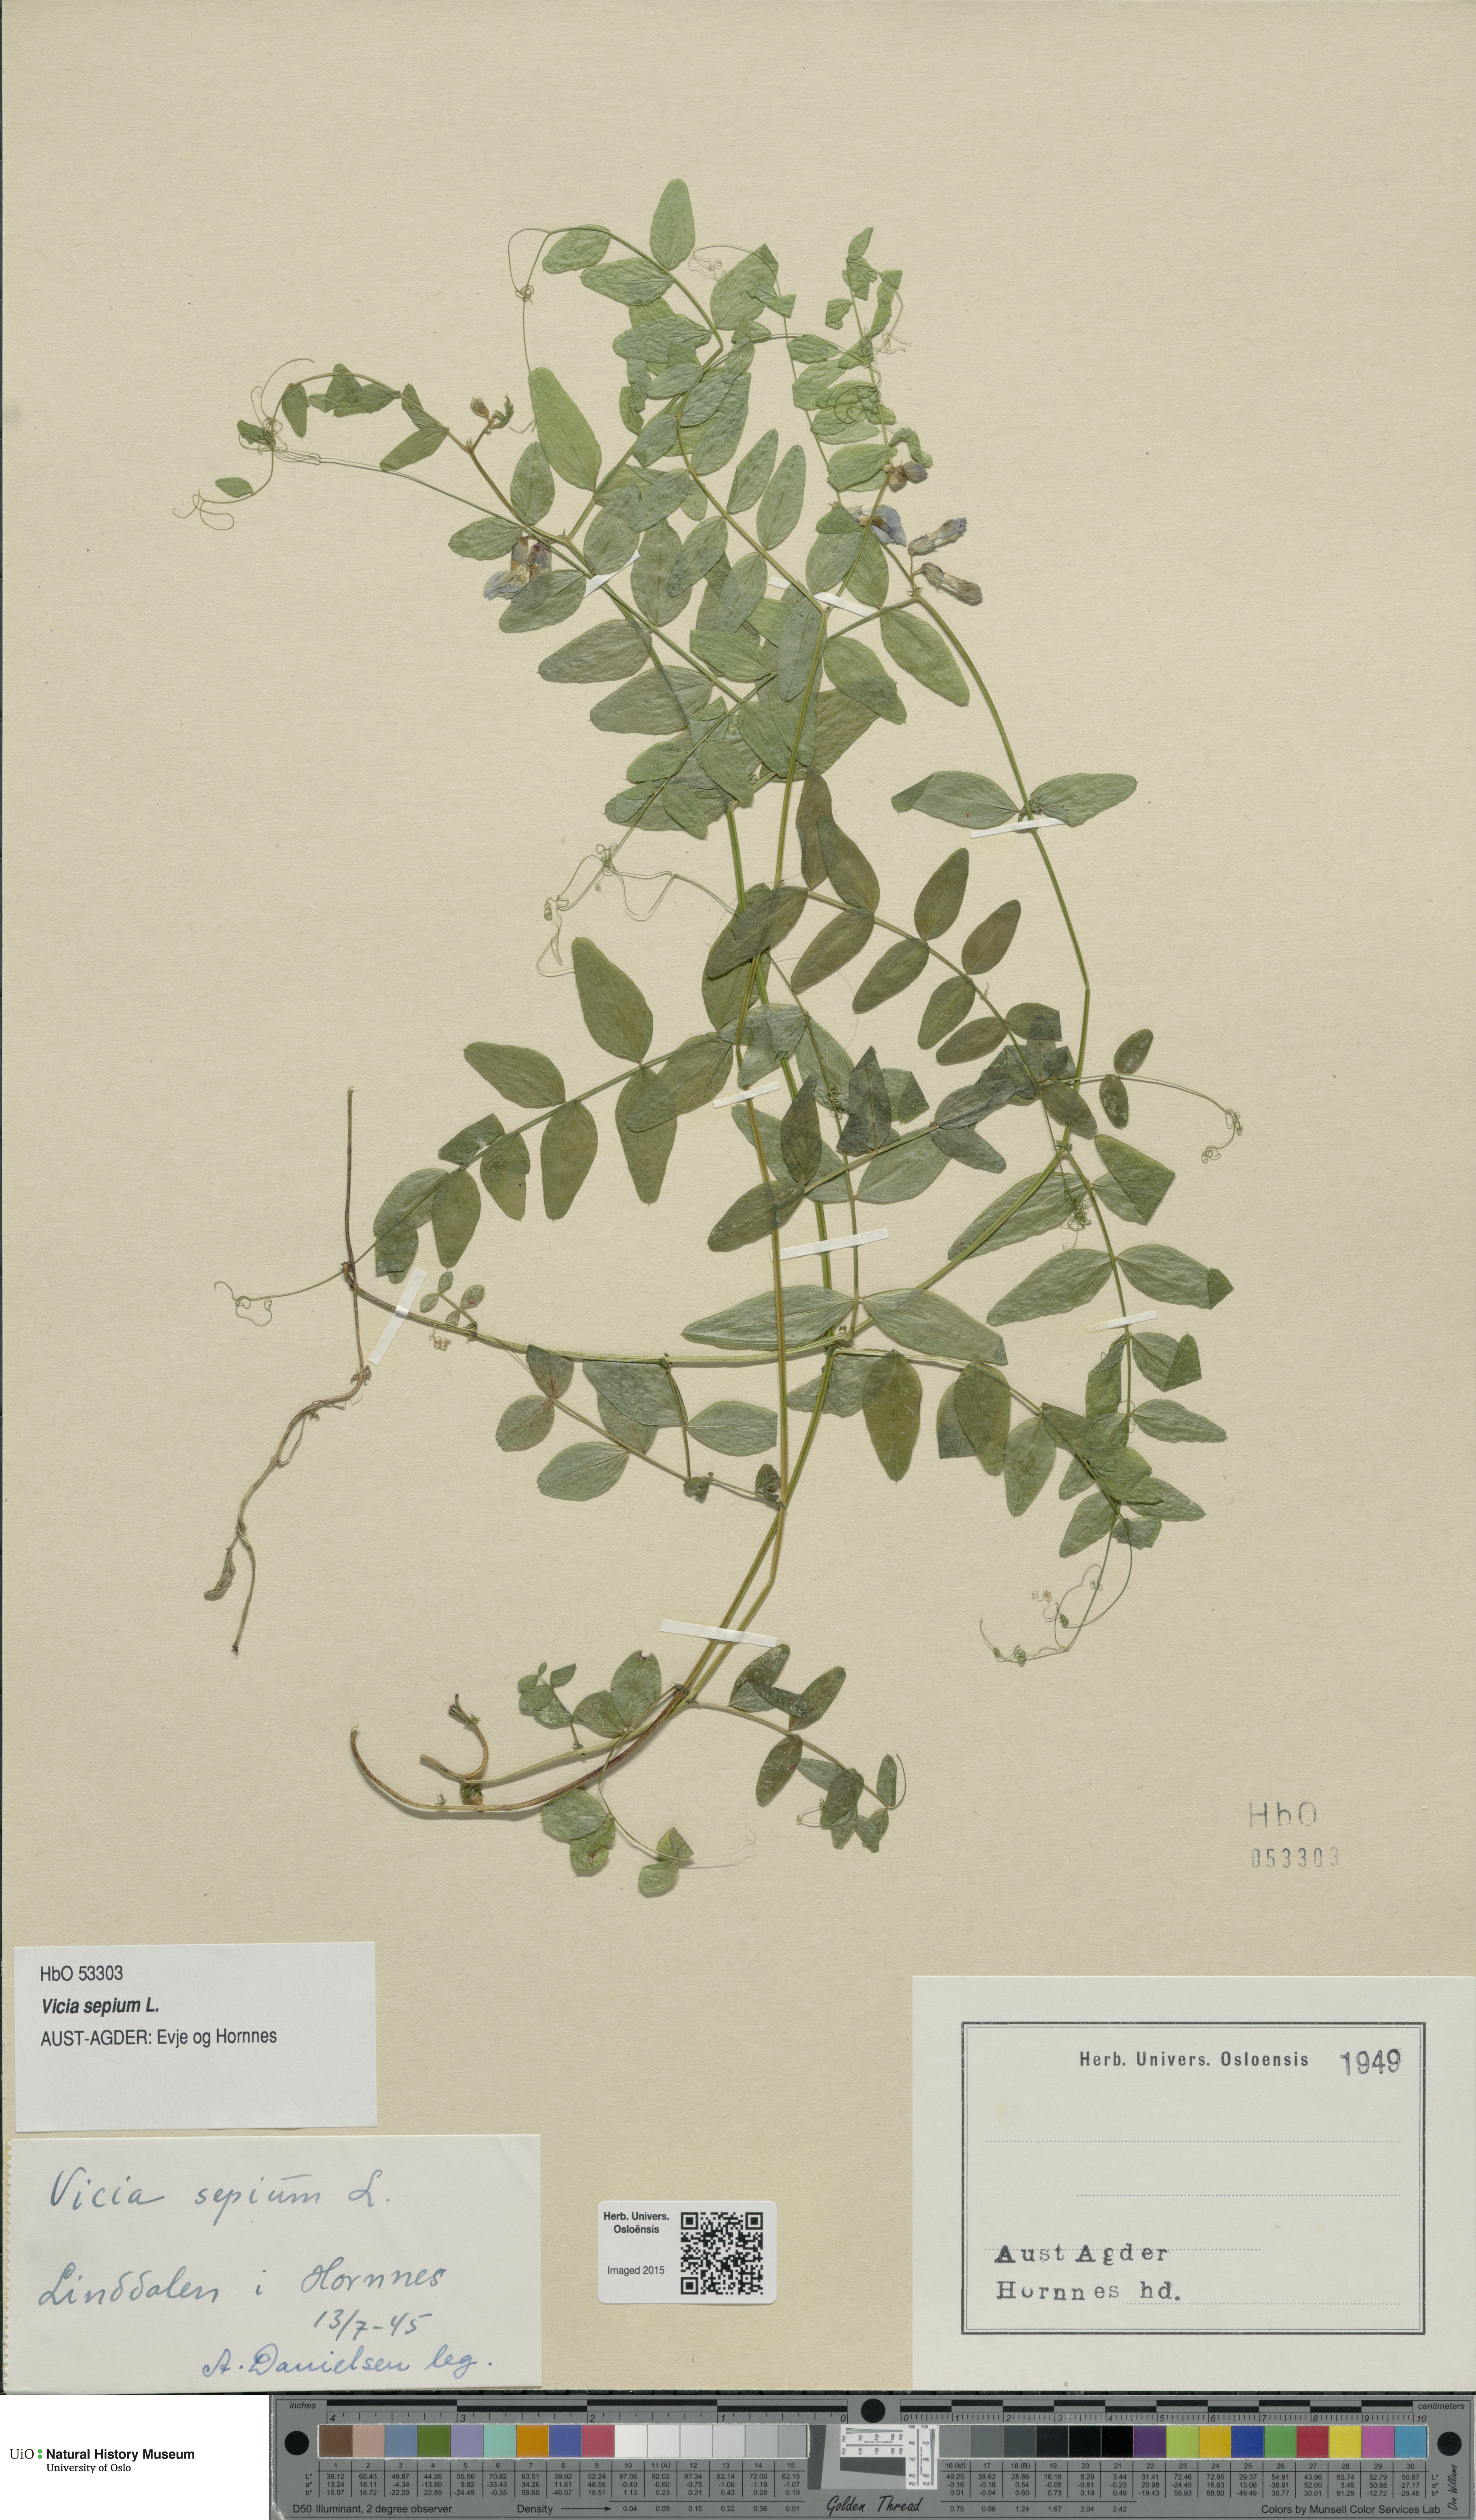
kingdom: Plantae
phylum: Tracheophyta
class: Magnoliopsida
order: Fabales
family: Fabaceae
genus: Vicia
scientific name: Vicia sepium
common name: Bush vetch
